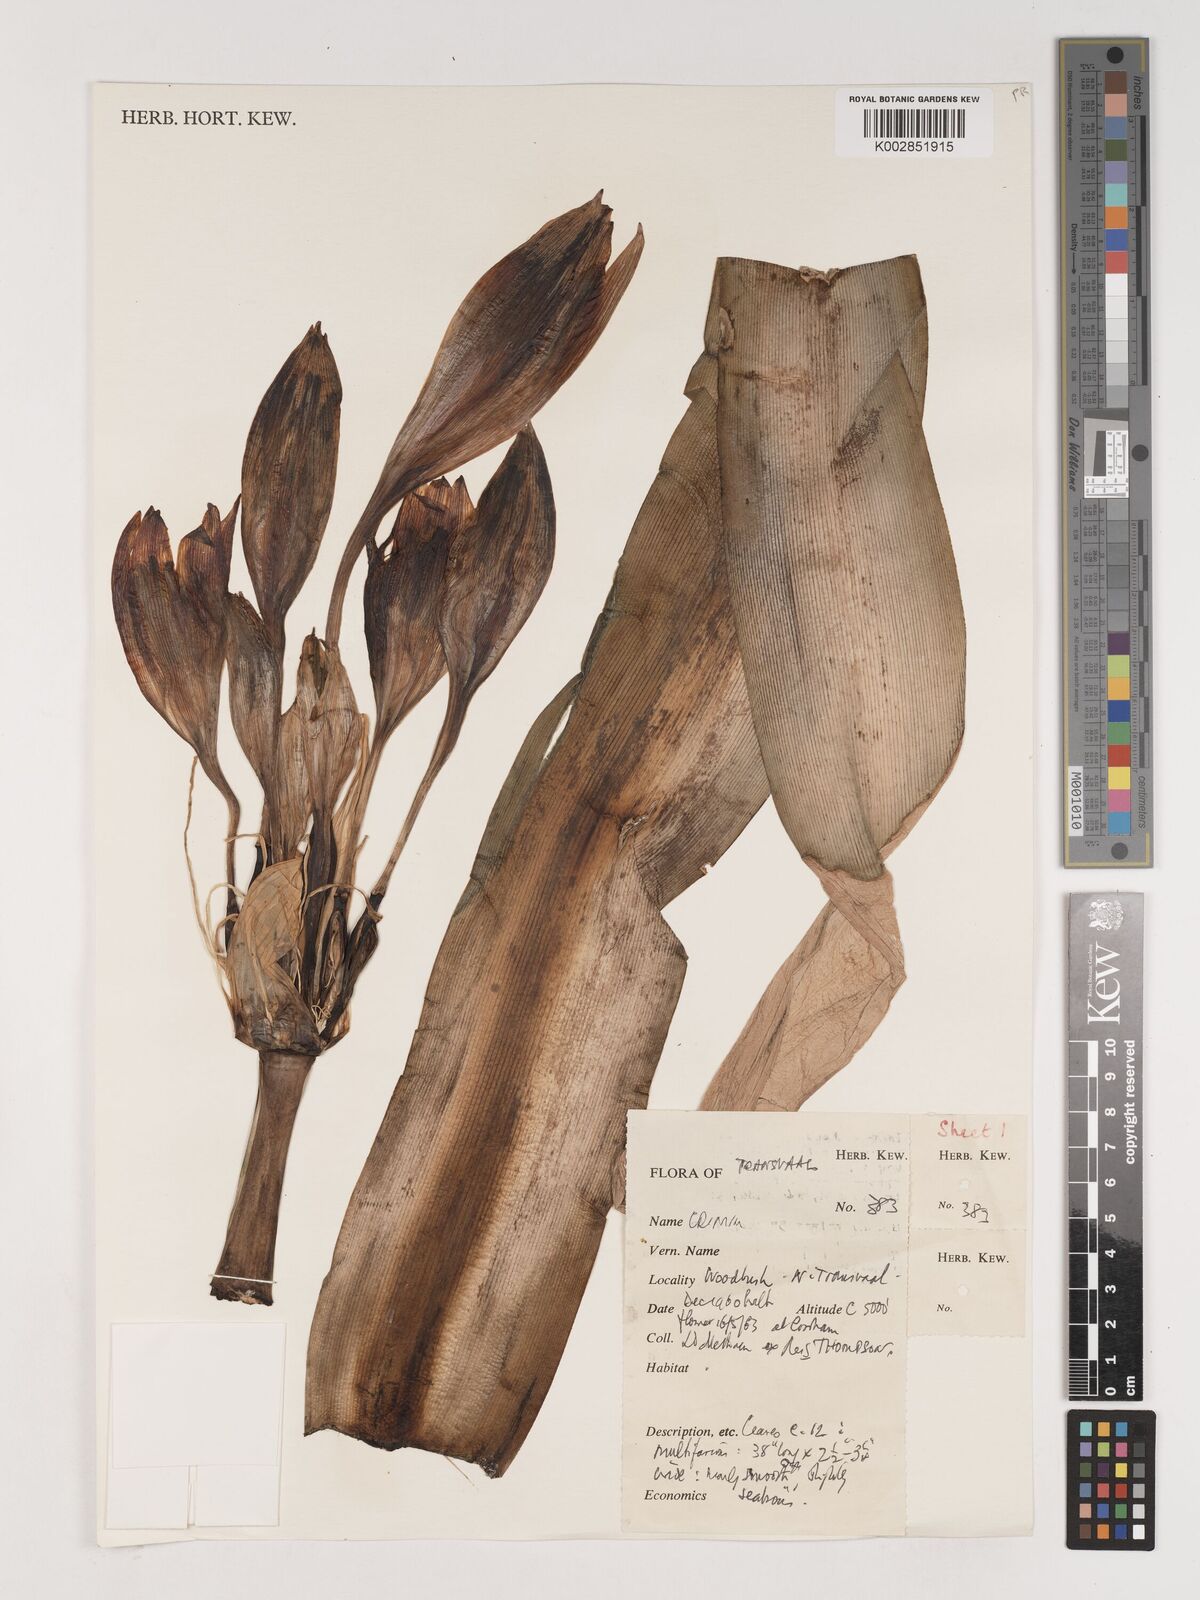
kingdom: Plantae
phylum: Tracheophyta
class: Liliopsida
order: Asparagales
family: Amaryllidaceae
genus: Crinum
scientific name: Crinum
